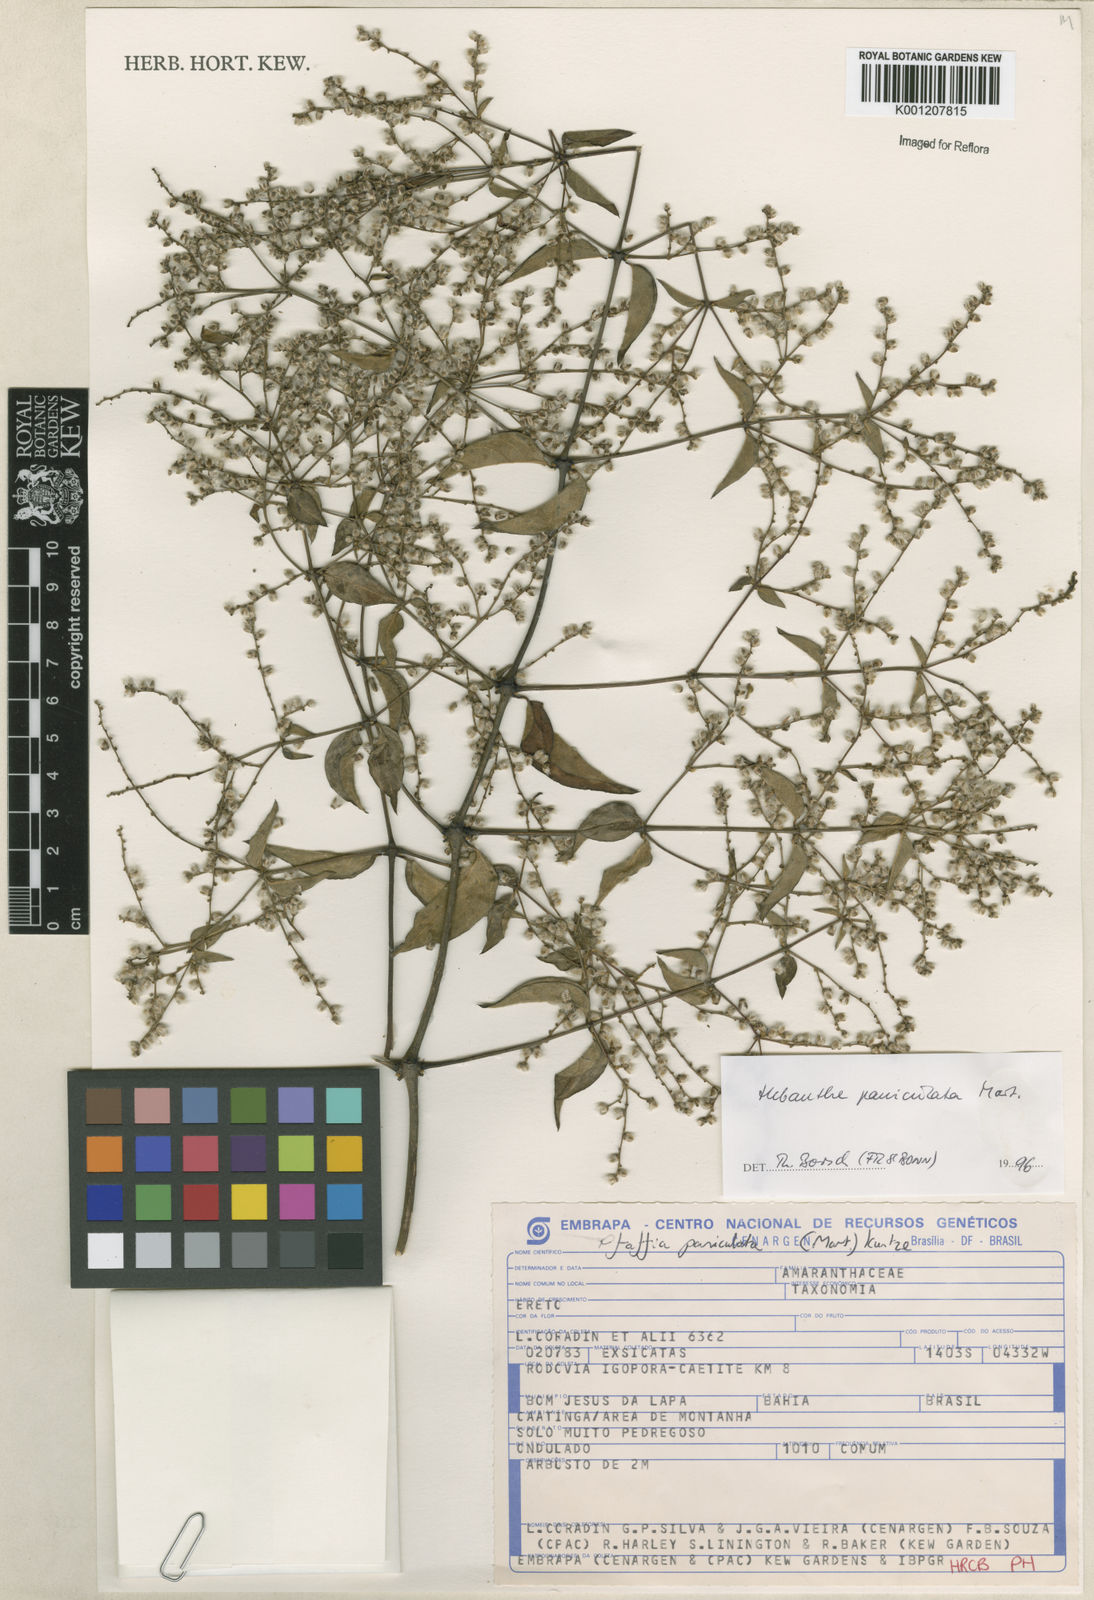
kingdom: Plantae
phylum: Tracheophyta
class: Magnoliopsida
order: Caryophyllales
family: Amaranthaceae
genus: Hebanthe
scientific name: Hebanthe erianthos
